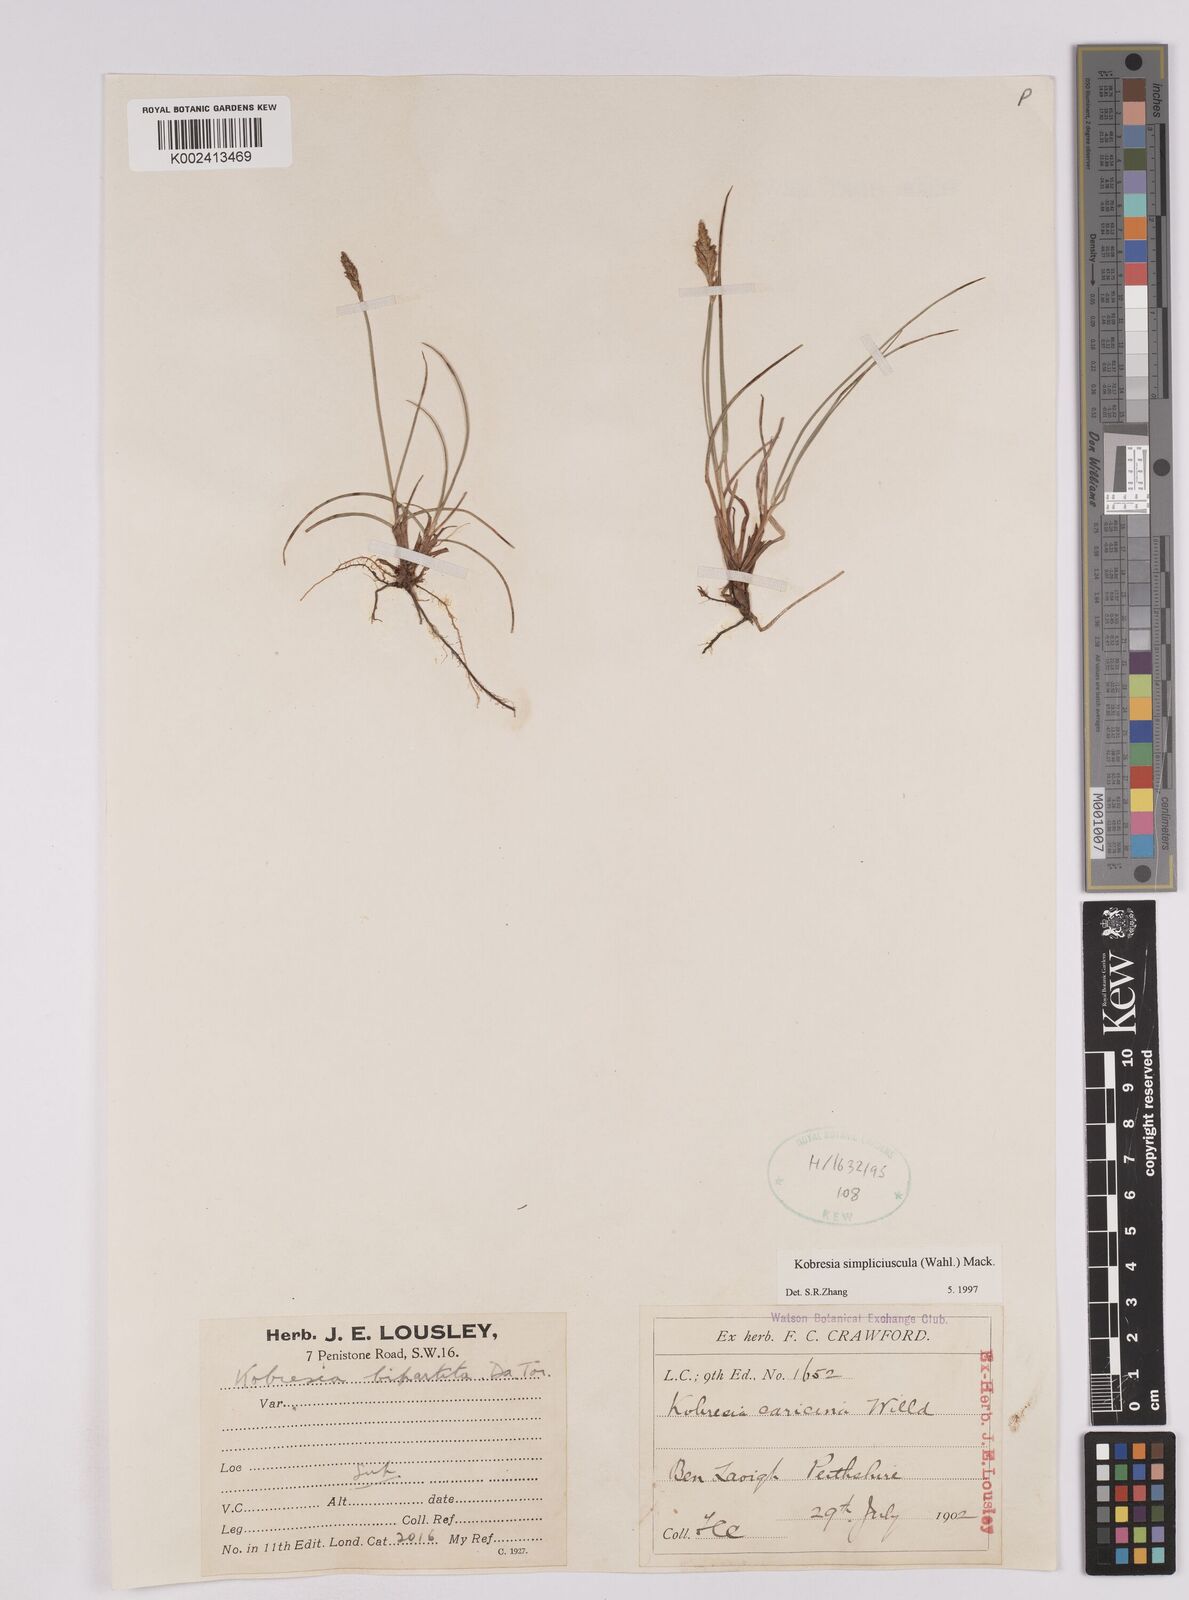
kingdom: Plantae
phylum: Tracheophyta
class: Liliopsida
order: Poales
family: Cyperaceae
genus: Carex
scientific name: Carex simpliciuscula
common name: Simple bog sedge
